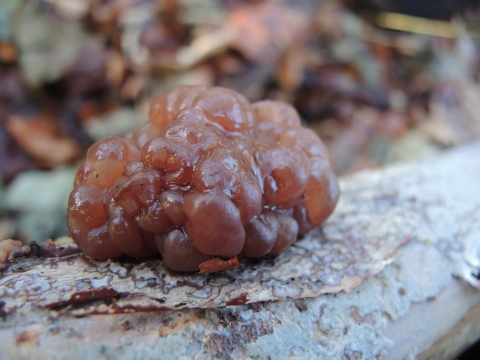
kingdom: Fungi
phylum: Ascomycota
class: Leotiomycetes
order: Helotiales
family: Gelatinodiscaceae
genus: Ascotremella
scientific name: Ascotremella faginea
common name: hjerne-bævreskive
